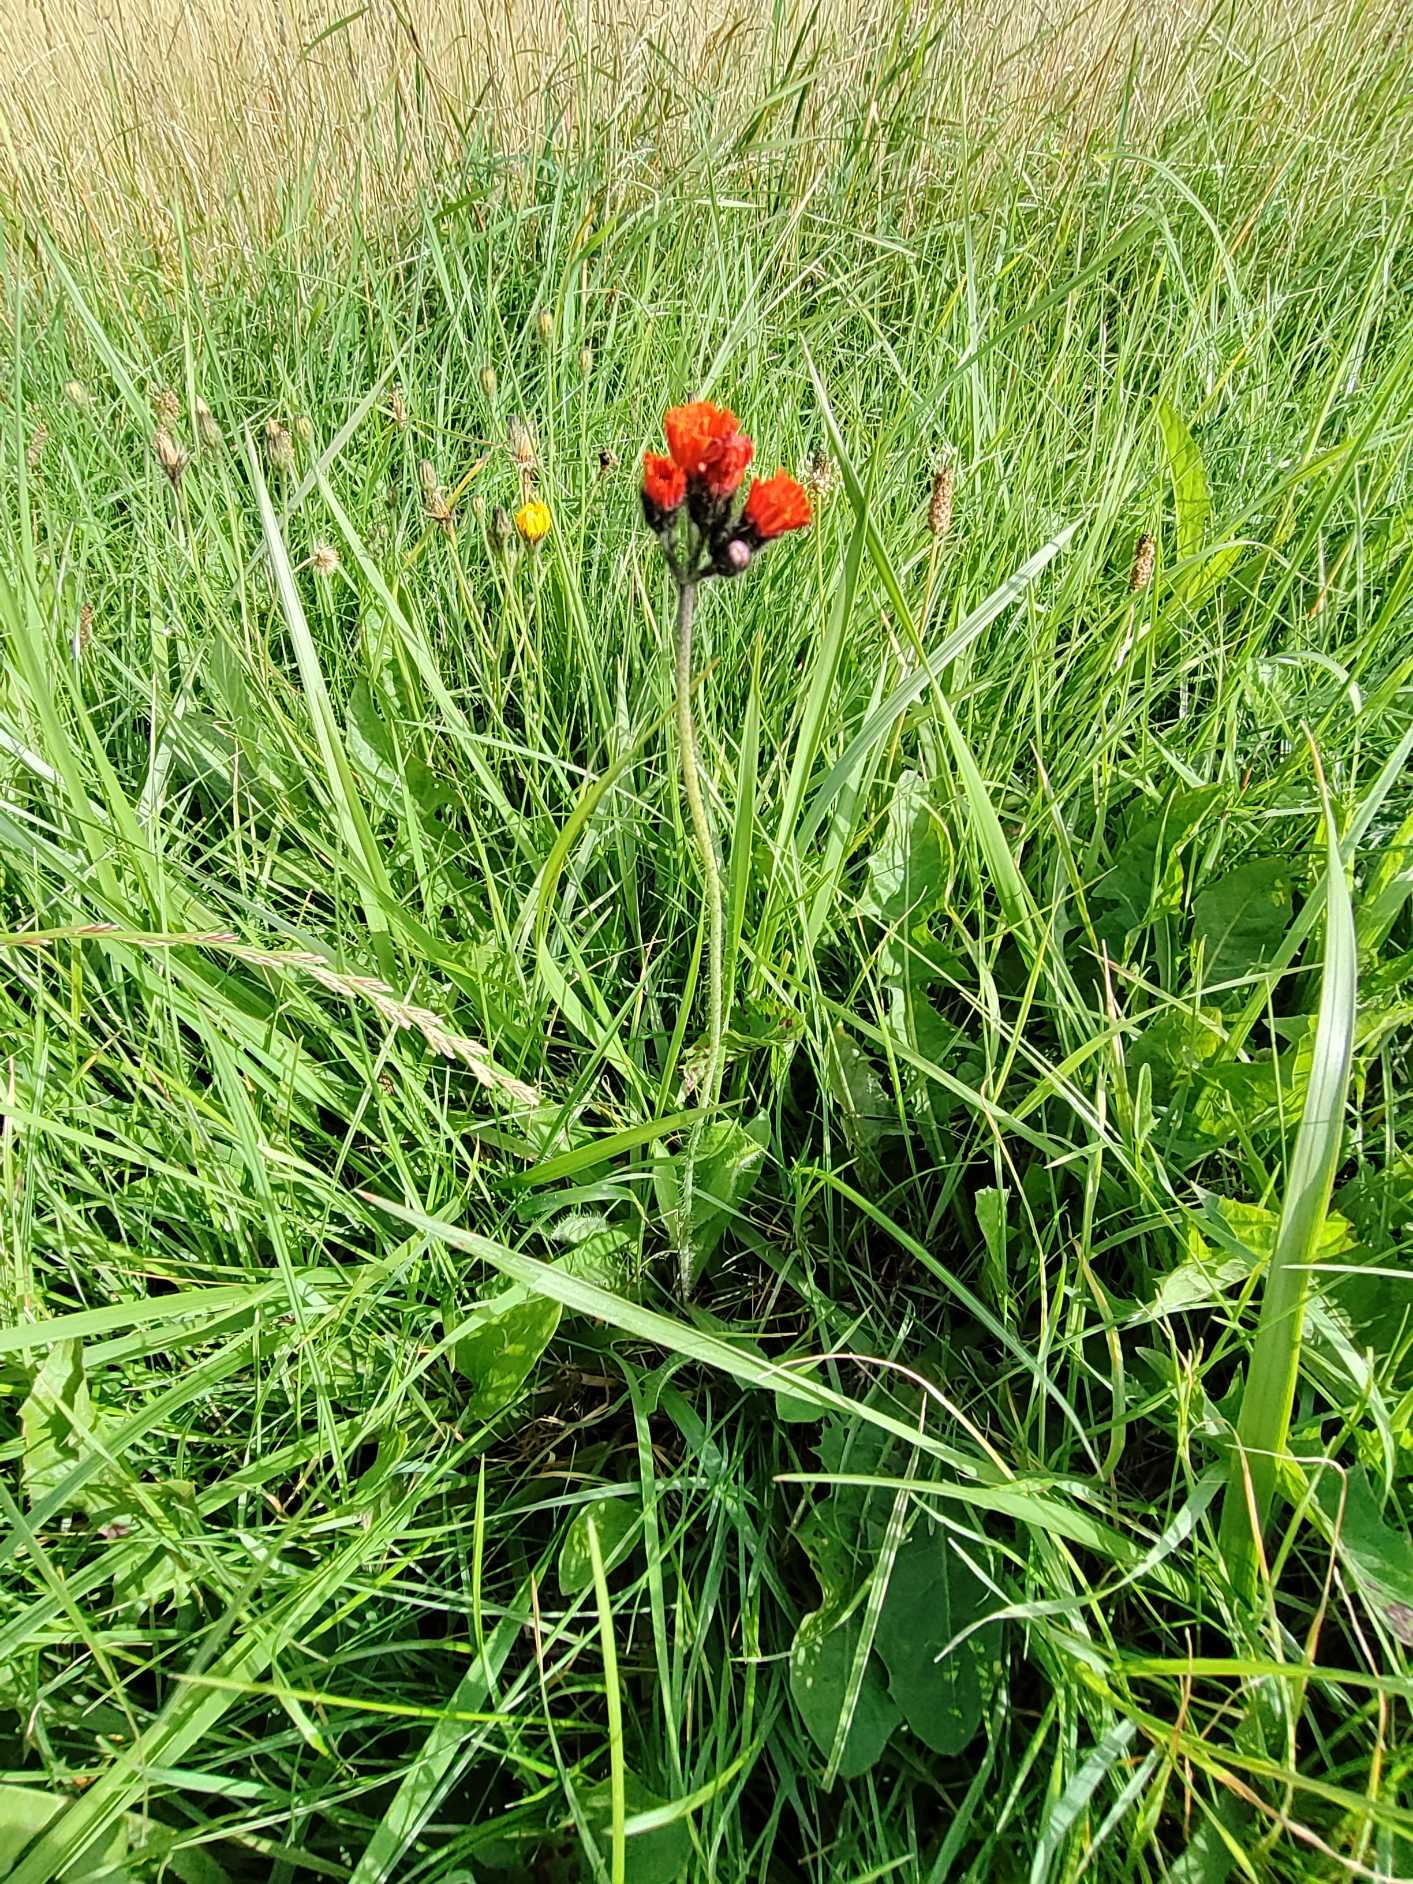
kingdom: Plantae
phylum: Tracheophyta
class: Magnoliopsida
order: Asterales
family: Asteraceae
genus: Pilosella
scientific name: Pilosella aurantiaca
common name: Pomerans-høgeurt
